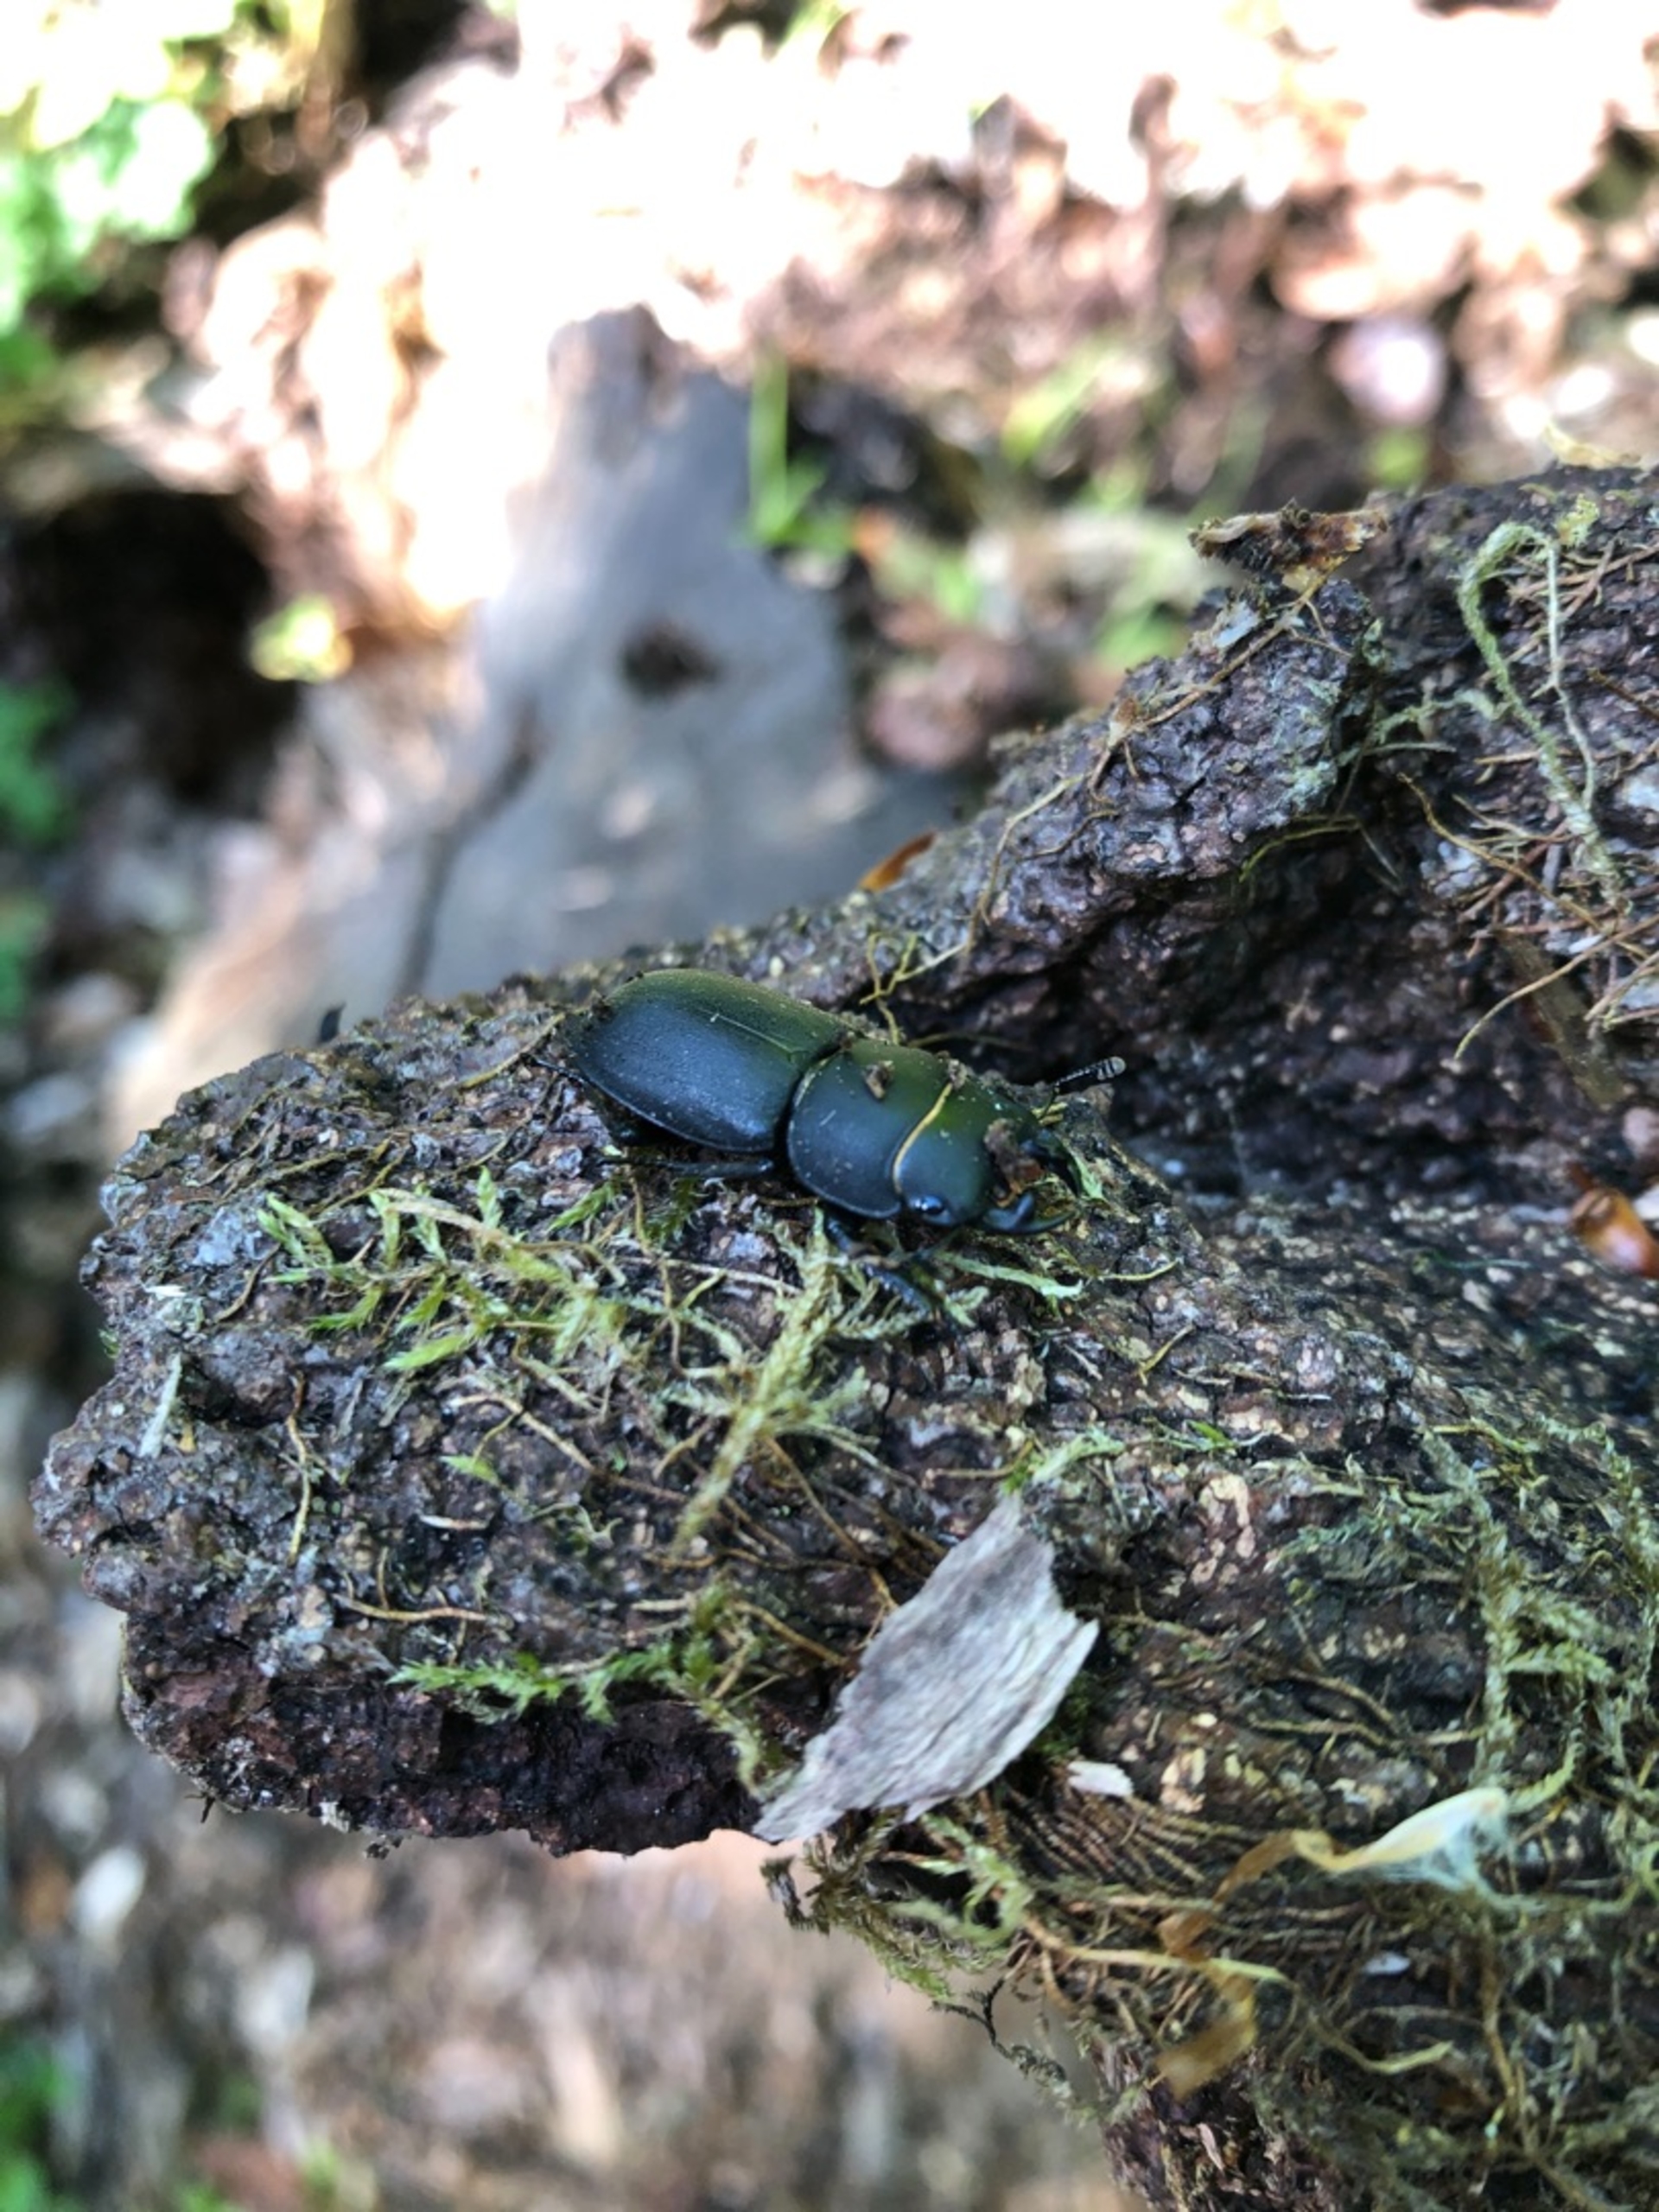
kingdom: Animalia
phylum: Arthropoda
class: Insecta
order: Coleoptera
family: Lucanidae
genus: Dorcus
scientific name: Dorcus parallelipipedus
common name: Bøghjort
